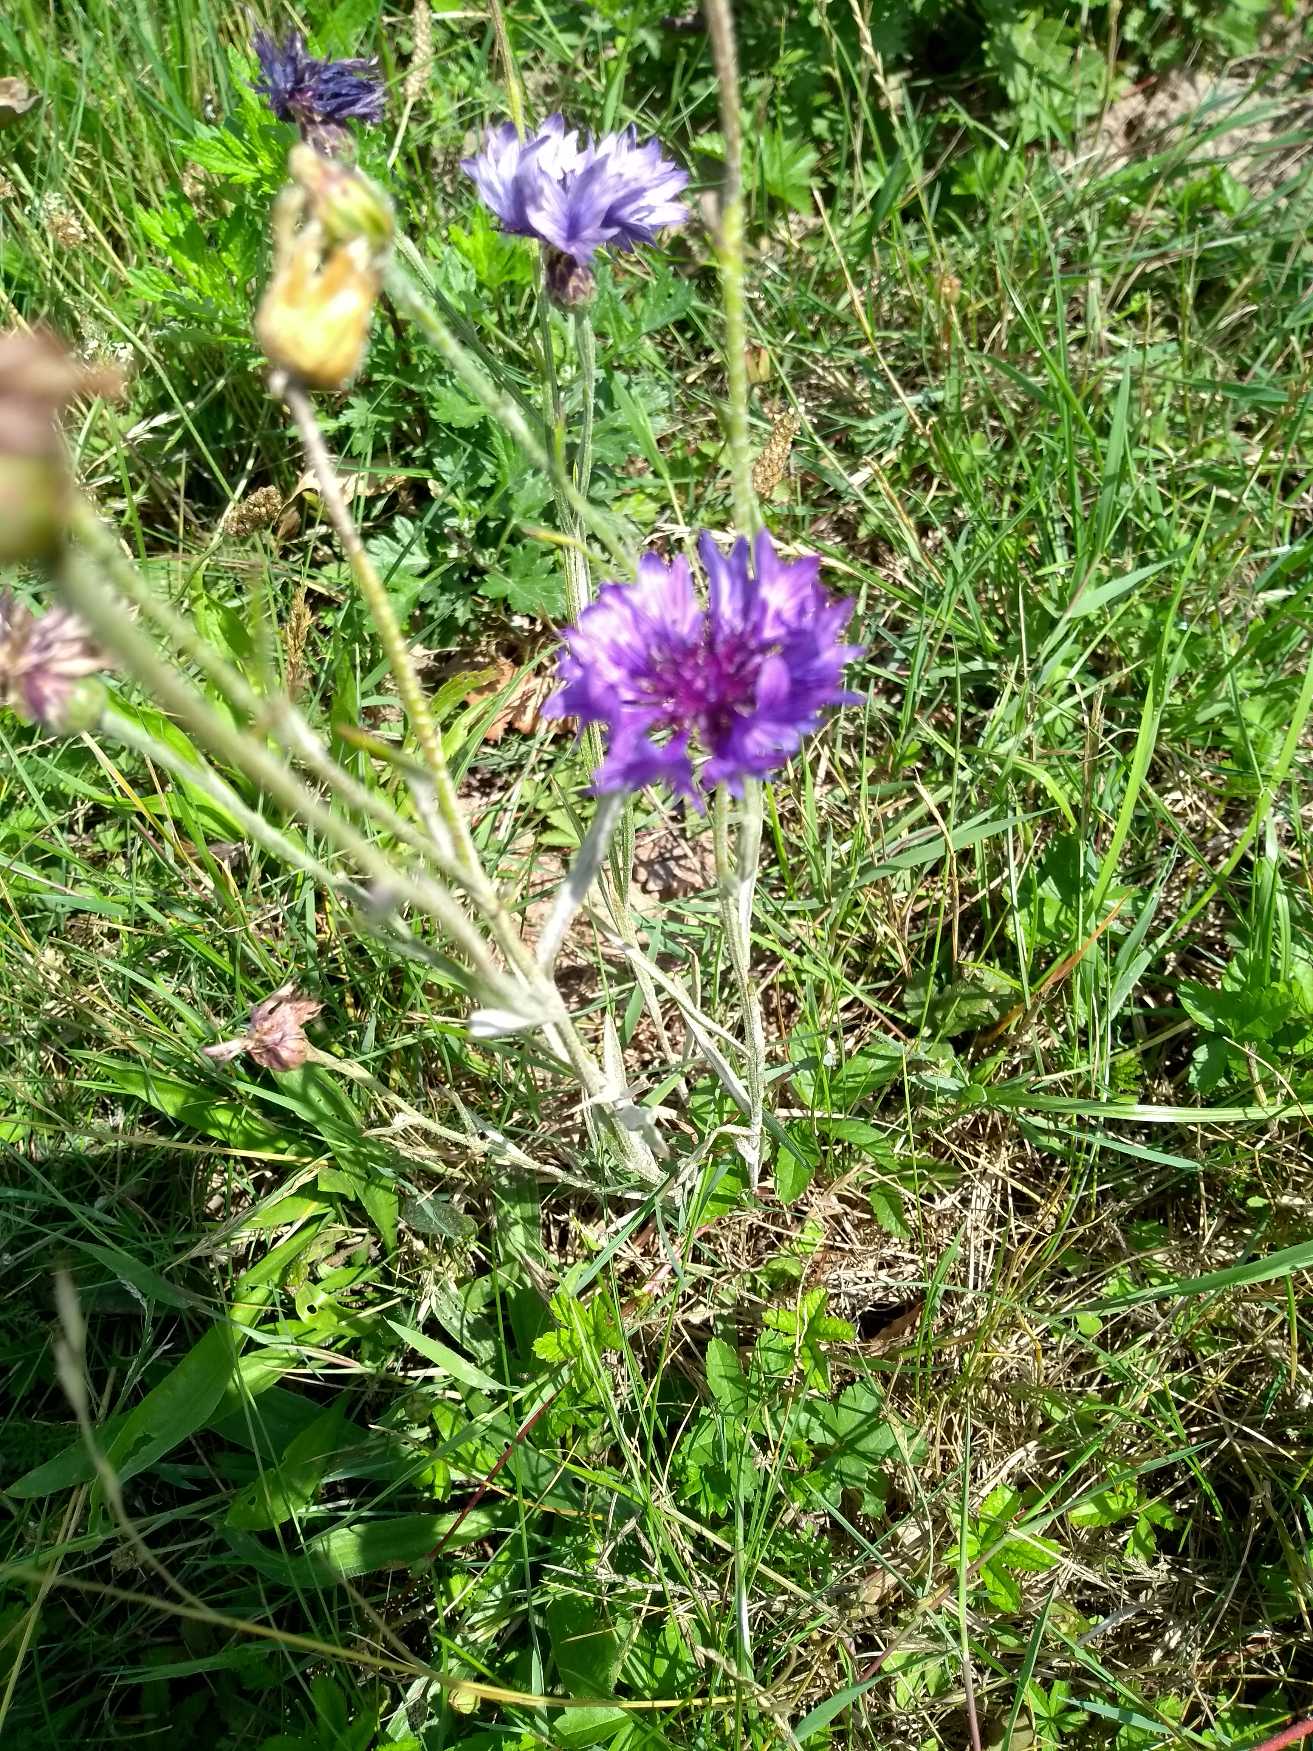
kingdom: Plantae
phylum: Tracheophyta
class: Magnoliopsida
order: Asterales
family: Asteraceae
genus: Centaurea
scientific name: Centaurea cyanus
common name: Kornblomst
